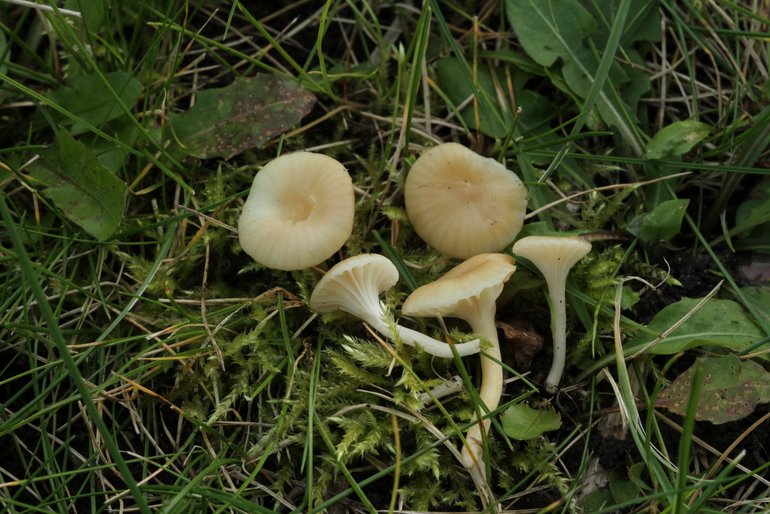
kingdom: Fungi
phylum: Basidiomycota
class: Agaricomycetes
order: Agaricales
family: Hygrophoraceae
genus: Cuphophyllus
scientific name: Cuphophyllus russocoriaceus
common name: ruslæder-vokshat
